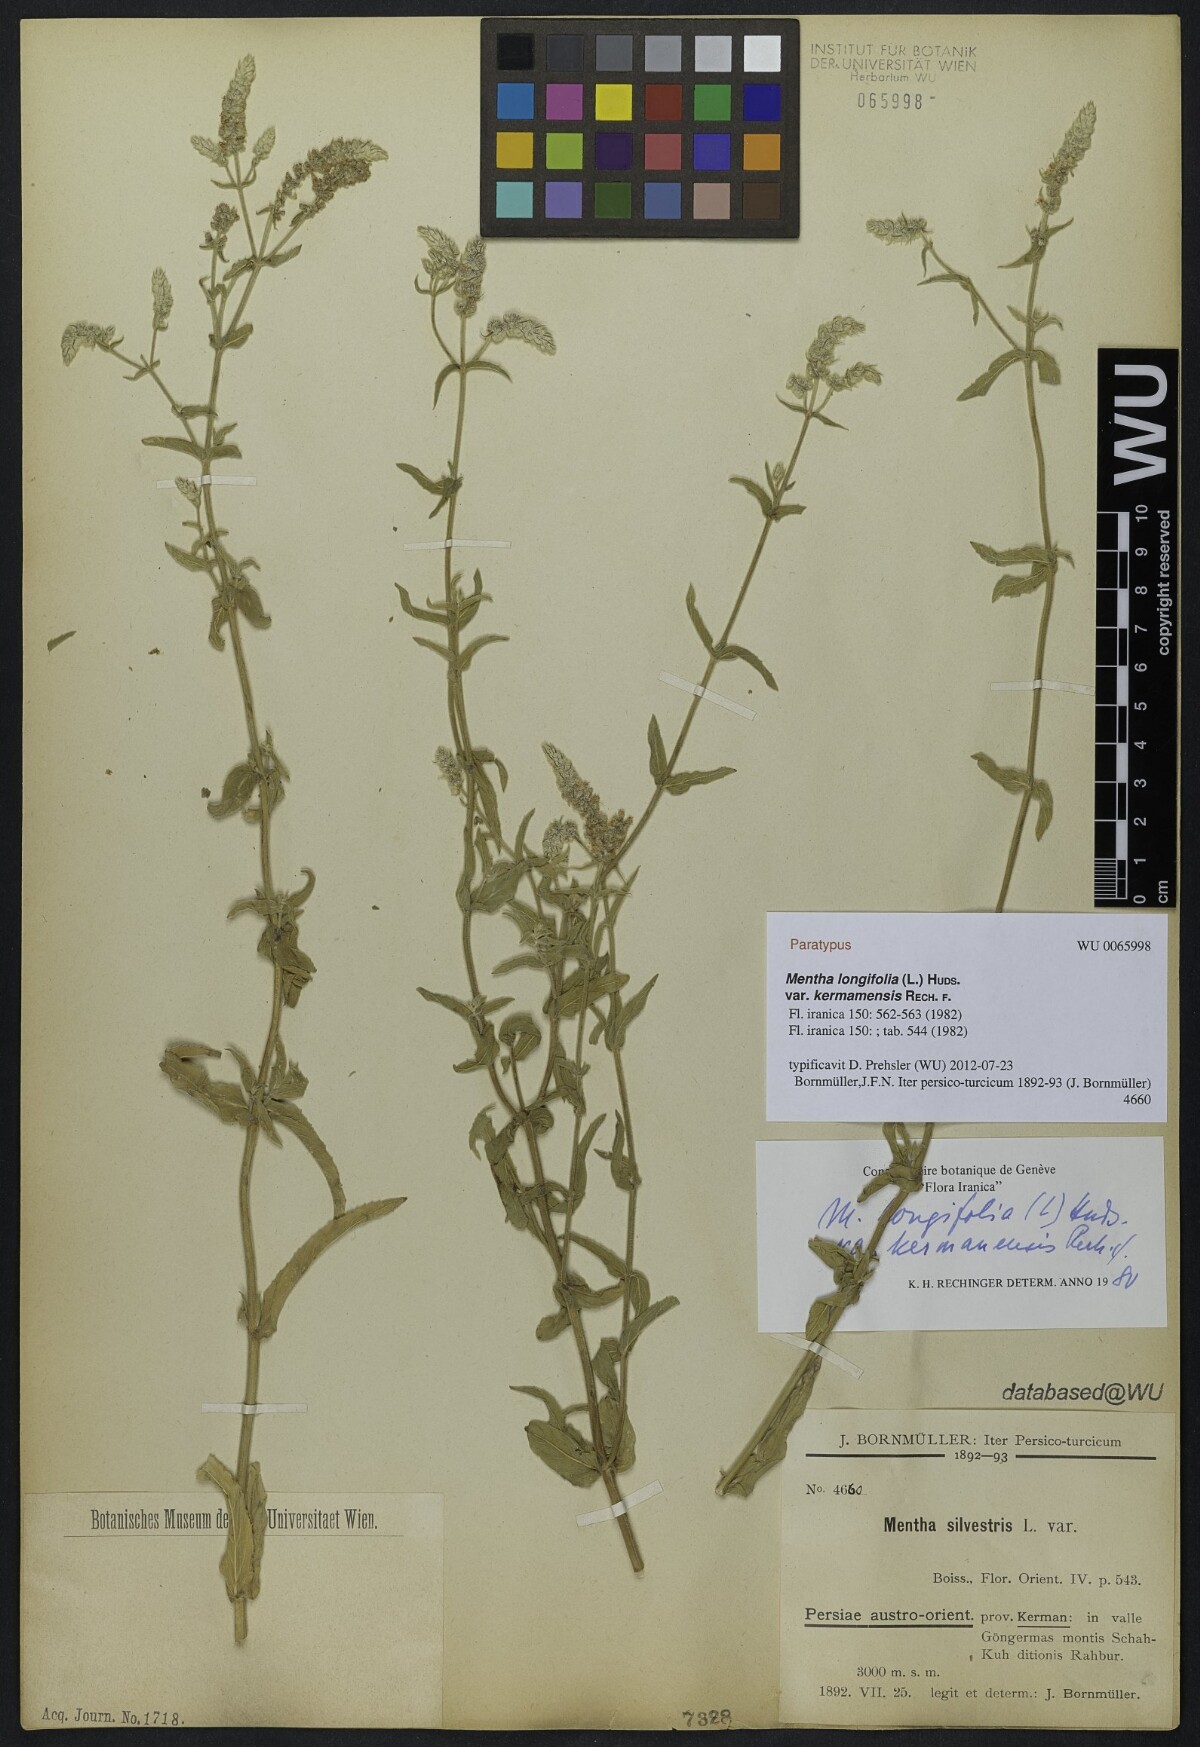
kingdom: Plantae
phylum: Tracheophyta
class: Magnoliopsida
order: Lamiales
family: Lamiaceae
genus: Mentha
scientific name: Mentha longifolia
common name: Horse mint
